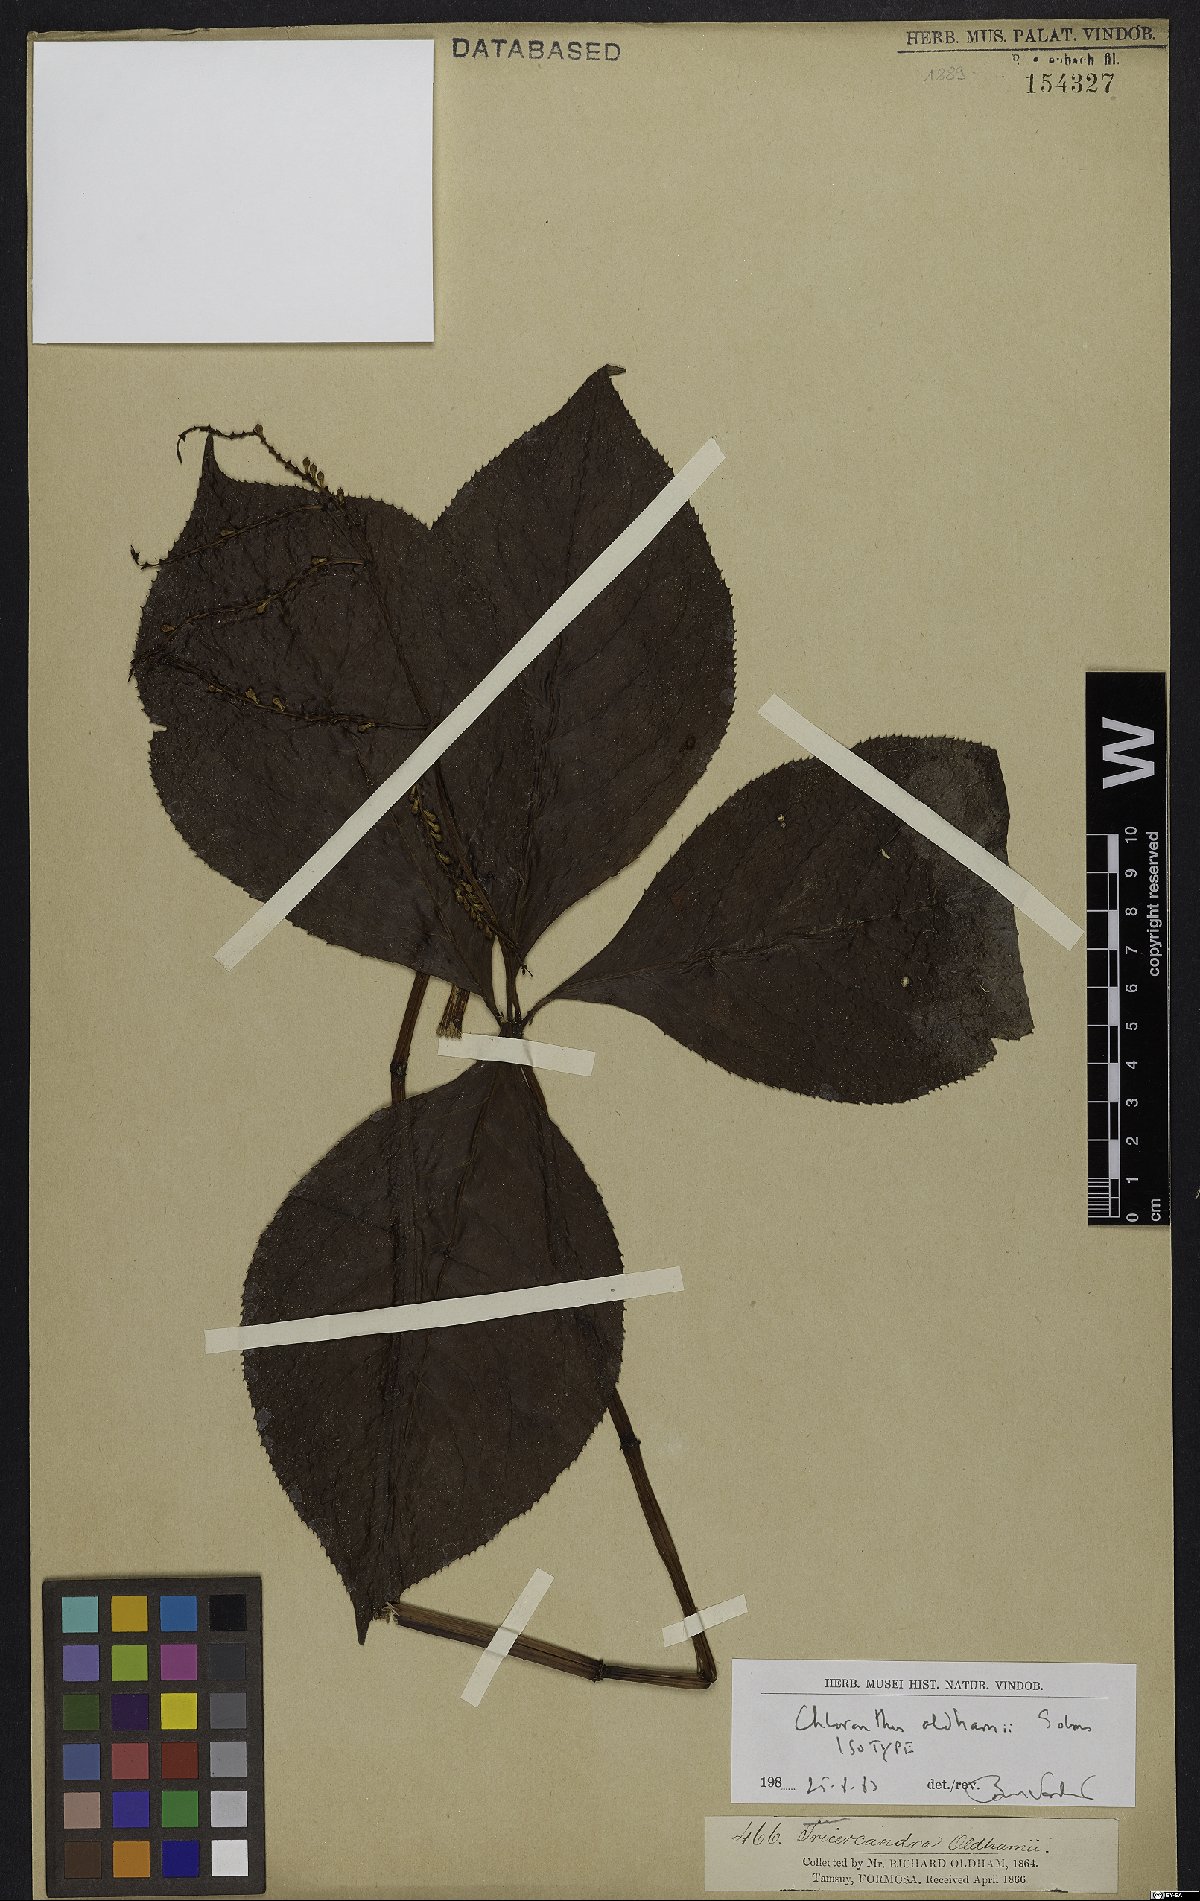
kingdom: Plantae
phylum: Tracheophyta
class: Magnoliopsida
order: Chloranthales
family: Chloranthaceae
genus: Chloranthus
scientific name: Chloranthus oldhamii
